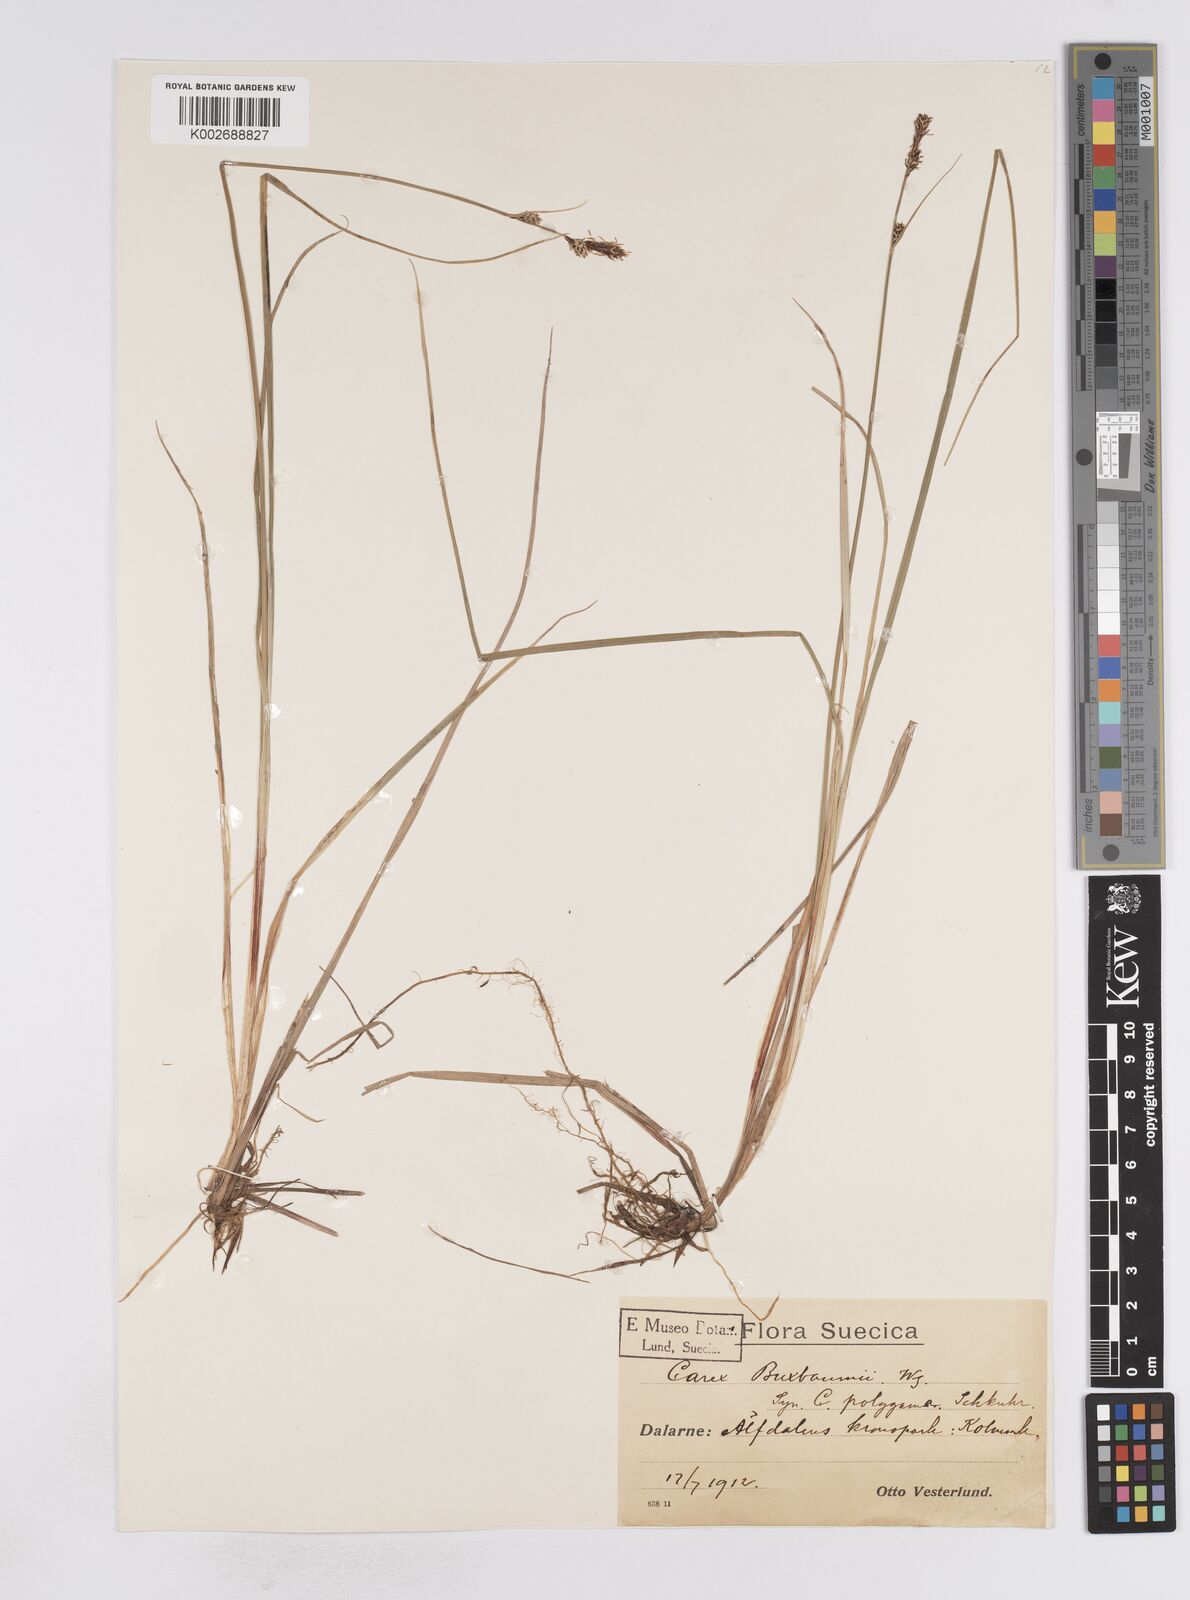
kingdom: Plantae
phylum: Tracheophyta
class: Liliopsida
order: Poales
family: Cyperaceae
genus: Carex
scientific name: Carex buxbaumii
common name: Club sedge
